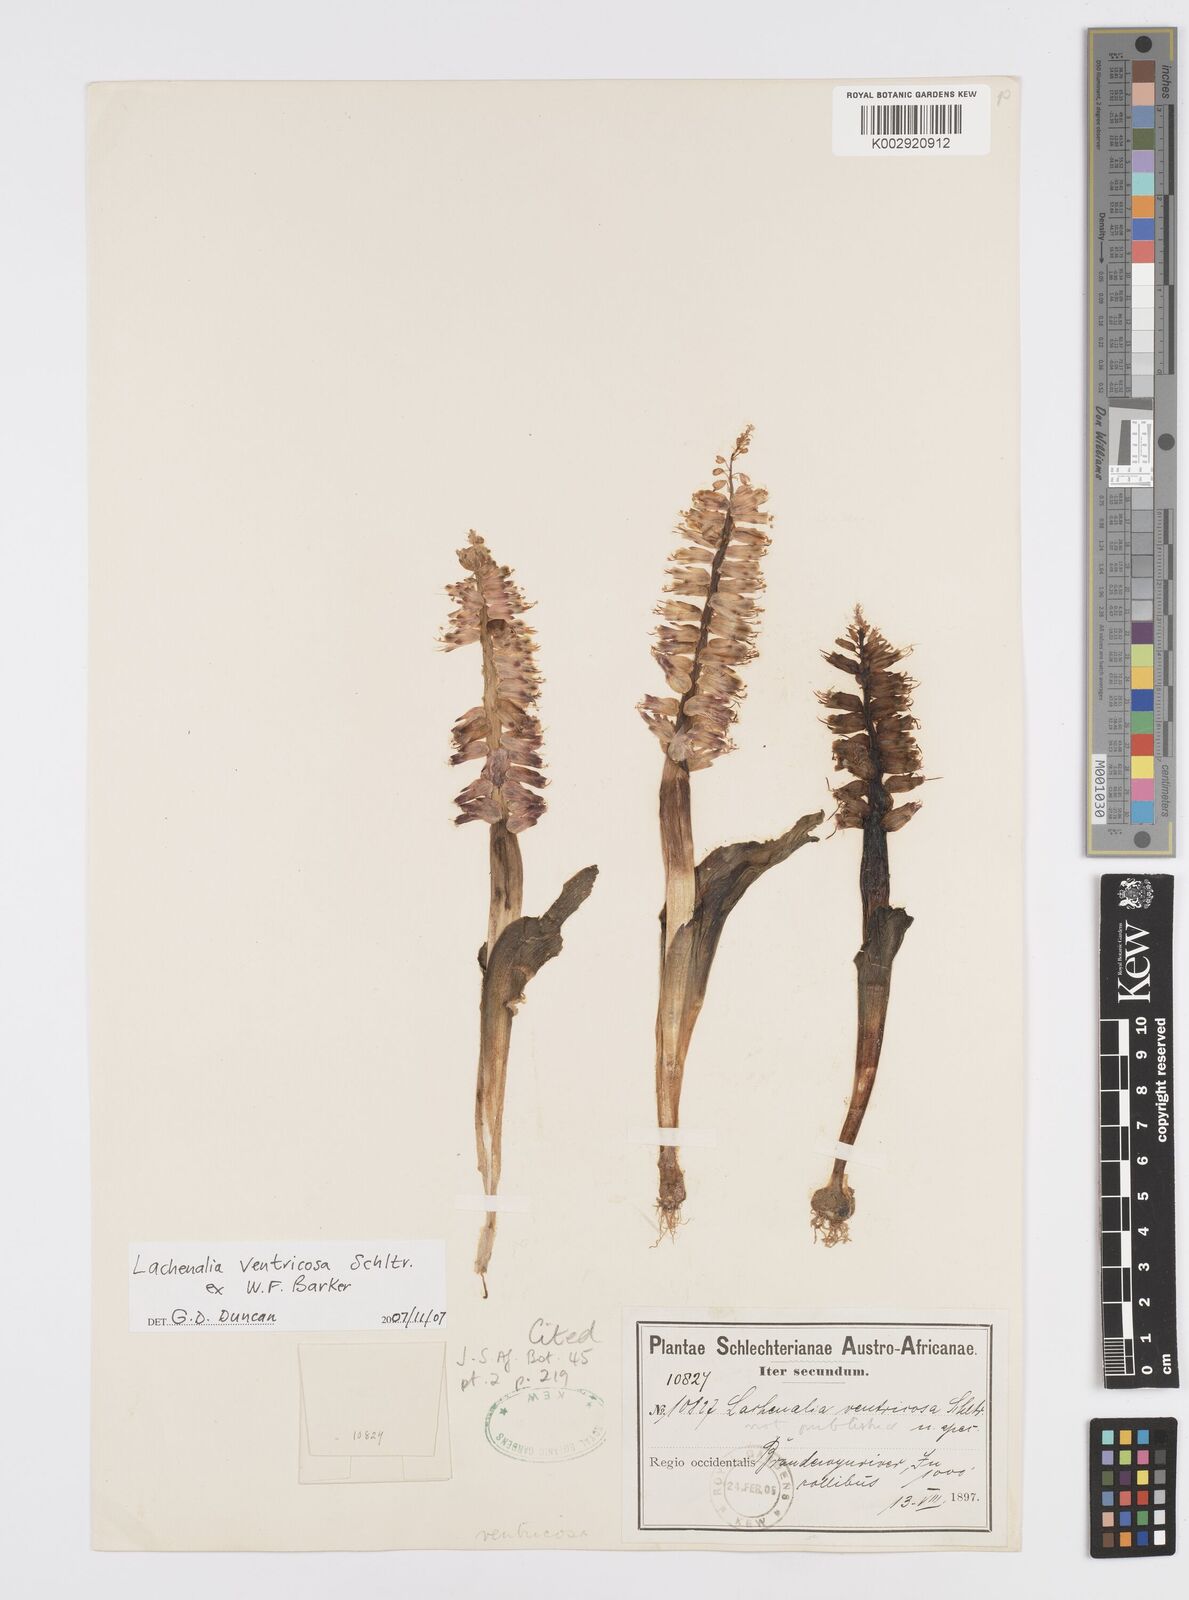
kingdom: Plantae
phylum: Tracheophyta
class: Liliopsida
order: Asparagales
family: Asparagaceae
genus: Lachenalia
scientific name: Lachenalia ventricosa
